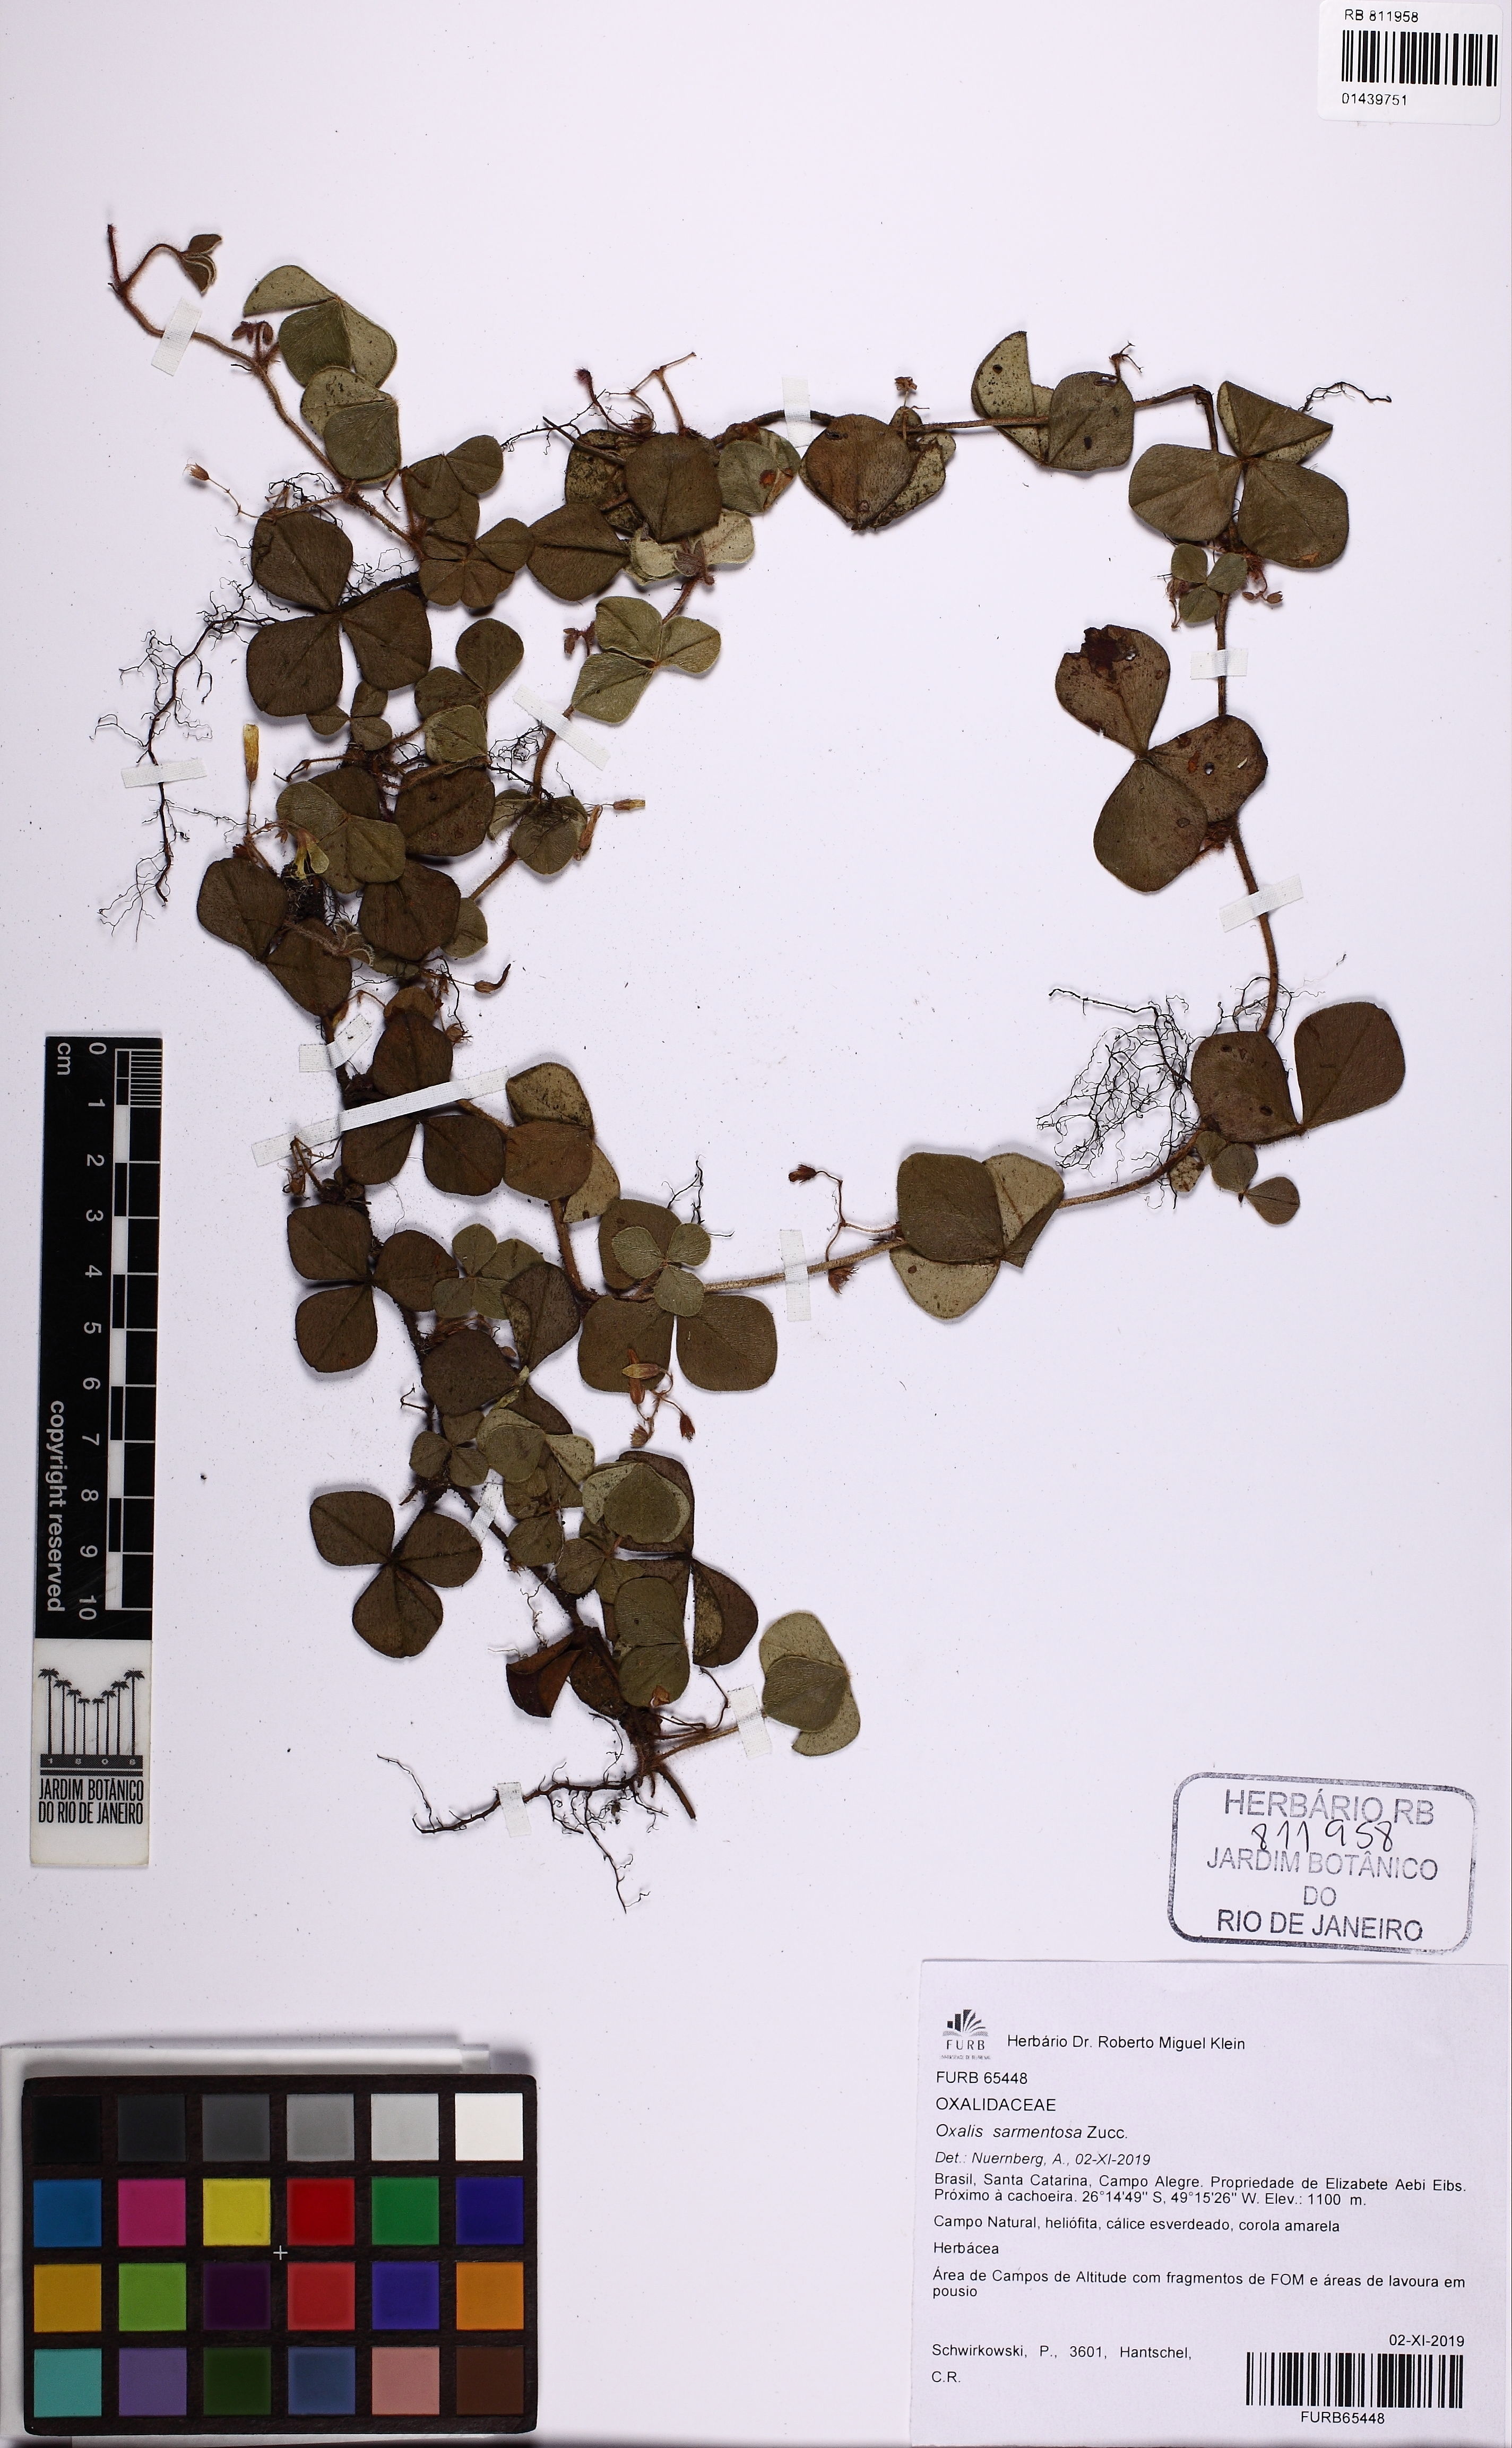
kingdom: Plantae
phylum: Tracheophyta
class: Magnoliopsida
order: Oxalidales
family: Oxalidaceae
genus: Oxalis
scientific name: Oxalis sarmentosa
